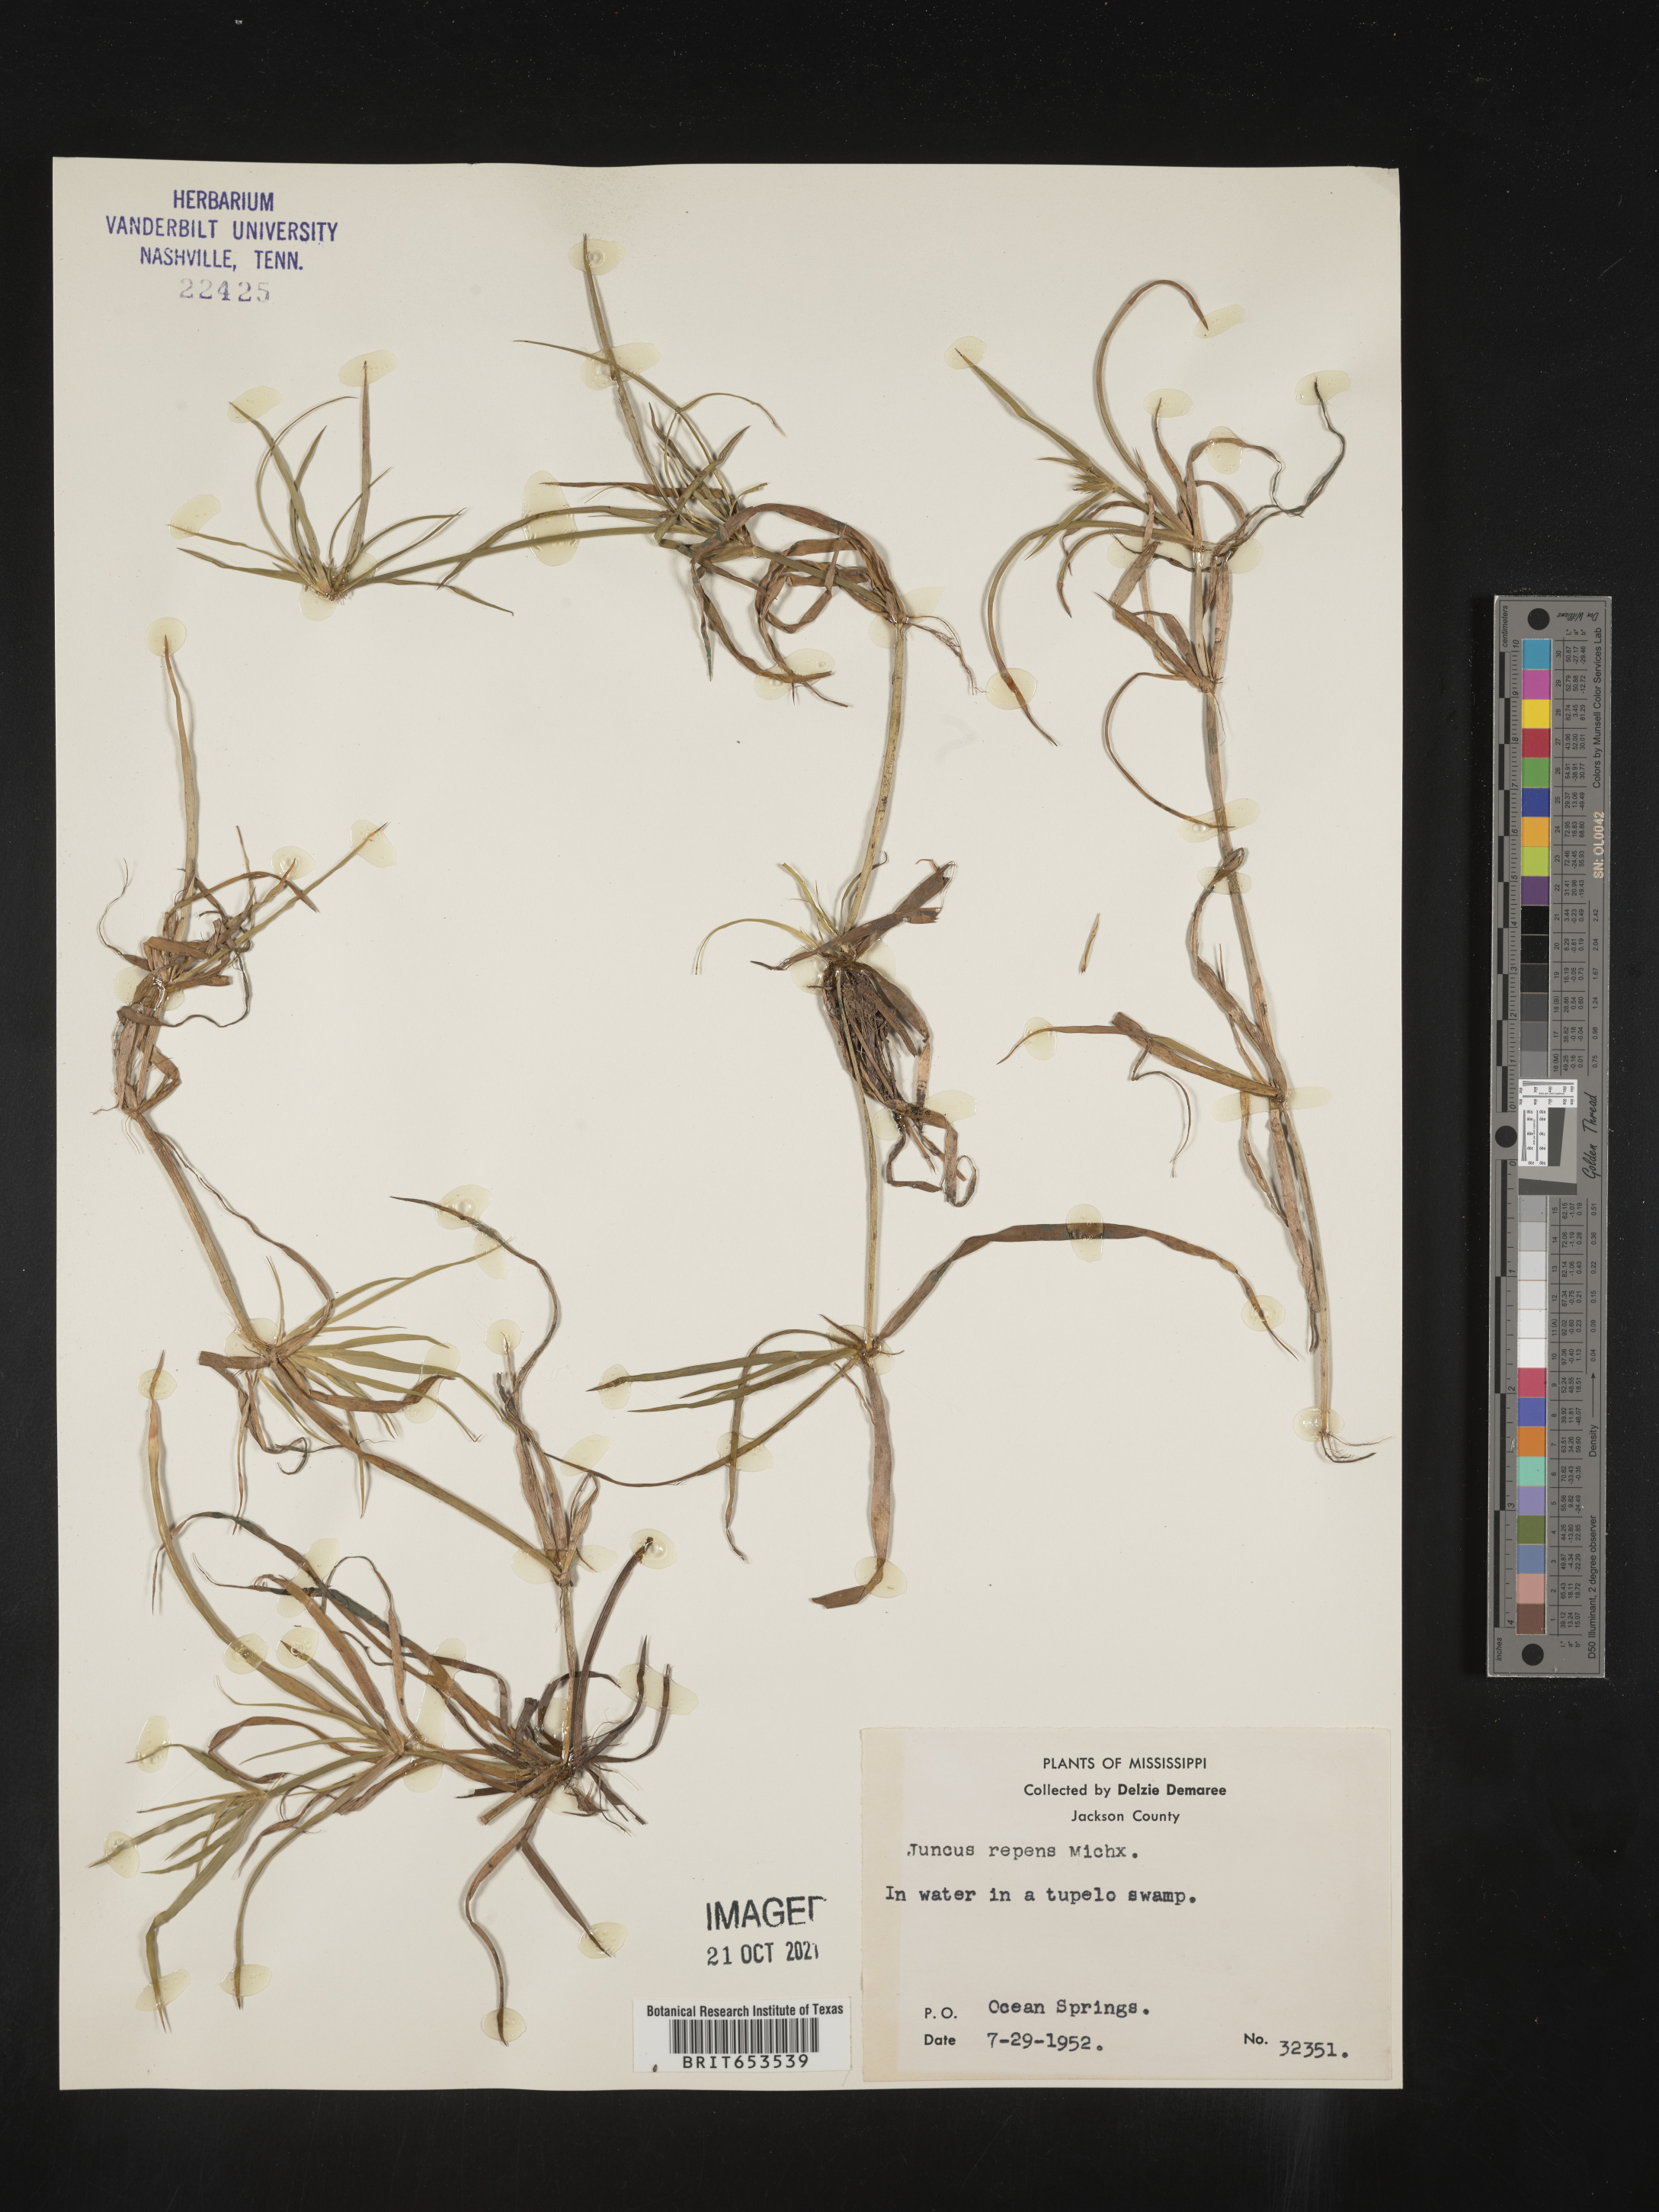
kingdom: Plantae
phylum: Tracheophyta
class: Liliopsida
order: Poales
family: Juncaceae
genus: Juncus
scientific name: Juncus repens
